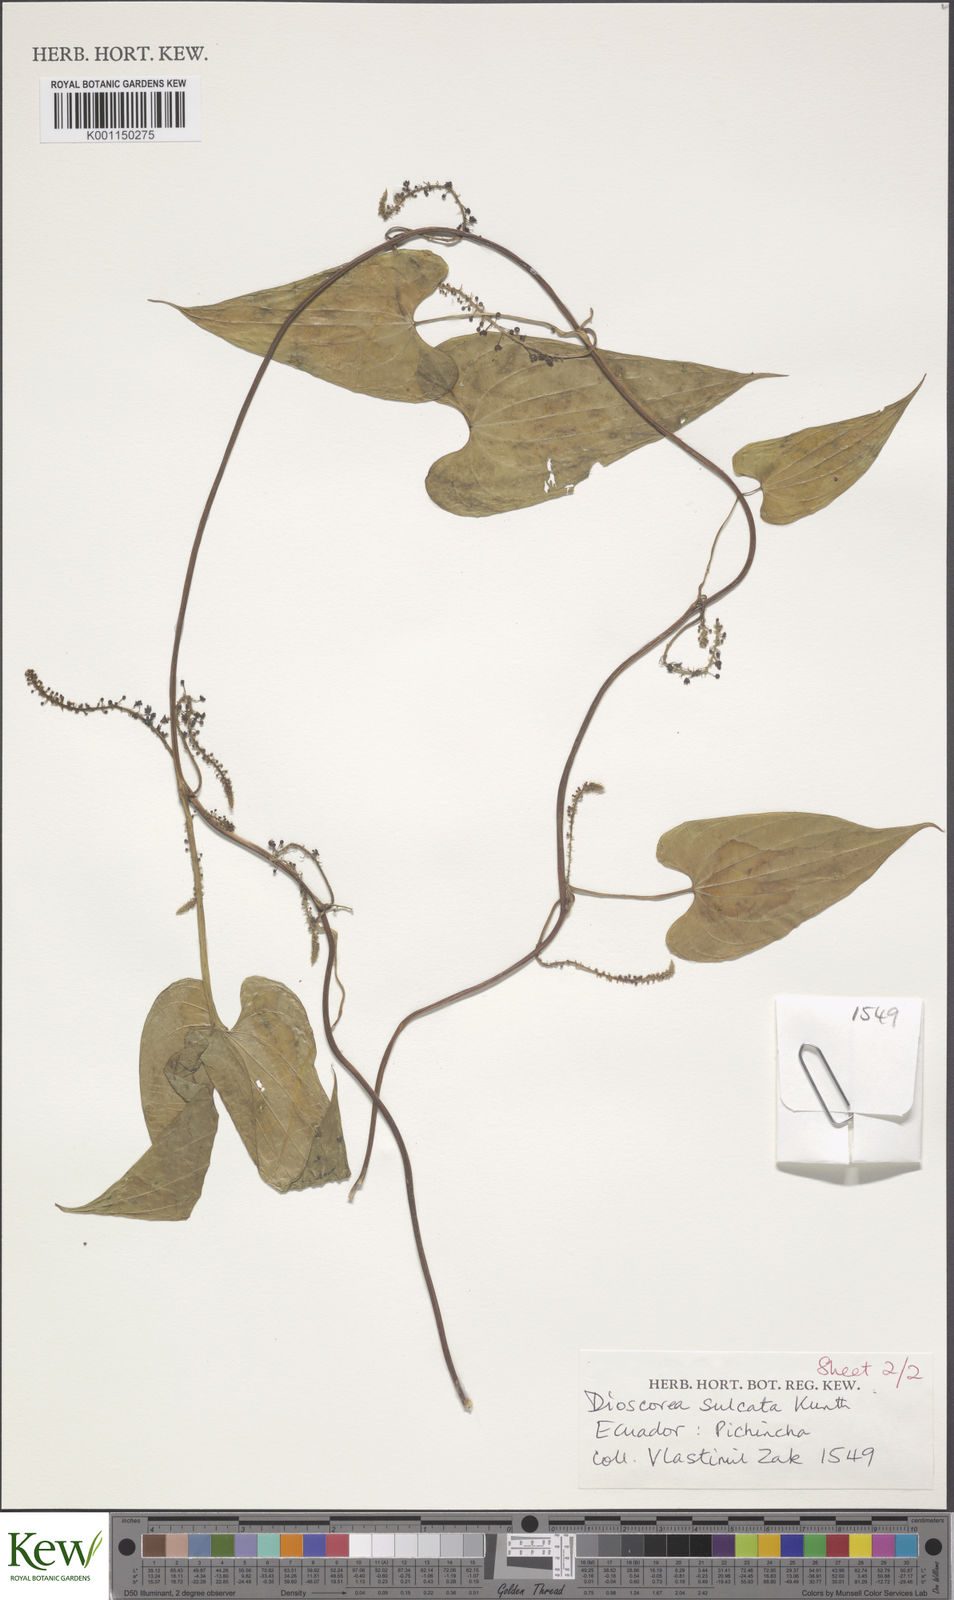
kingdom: Plantae
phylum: Tracheophyta
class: Liliopsida
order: Dioscoreales
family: Dioscoreaceae
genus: Dioscorea
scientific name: Dioscorea acanthogene
